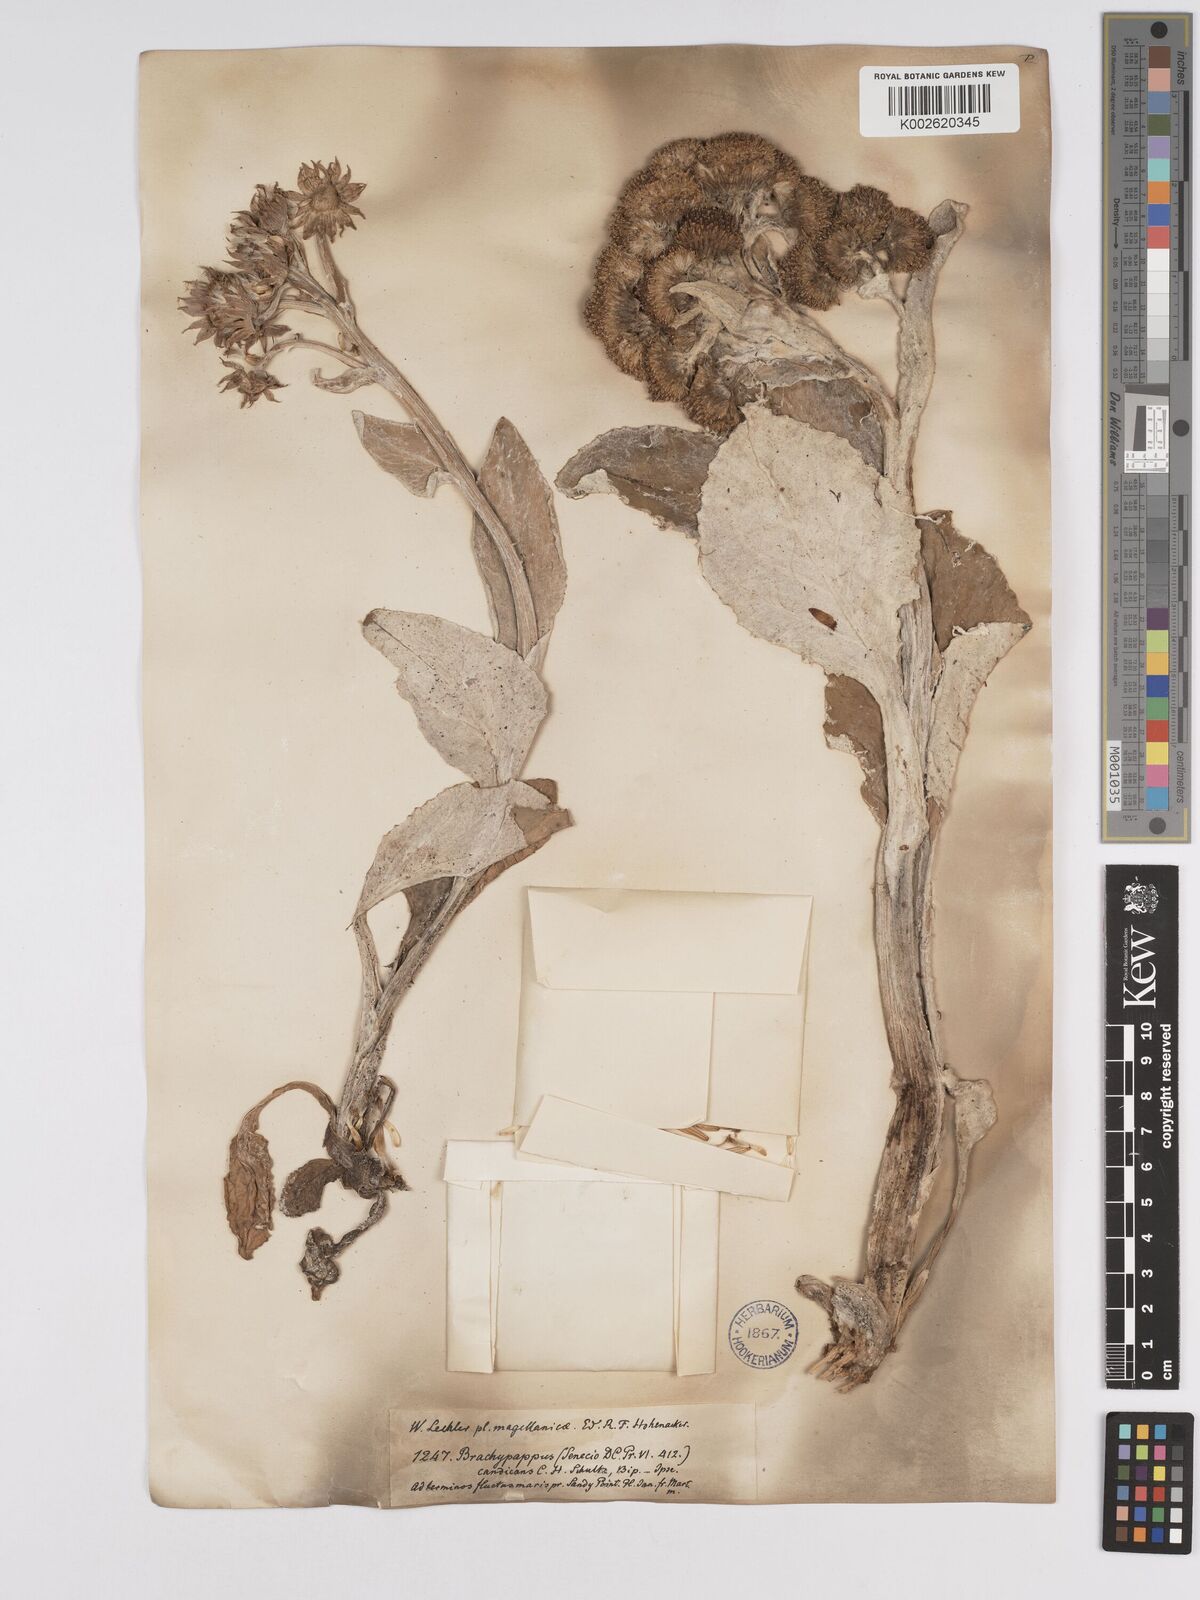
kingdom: Plantae
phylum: Tracheophyta
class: Magnoliopsida
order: Asterales
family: Asteraceae
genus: Senecio
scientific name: Senecio candidans
